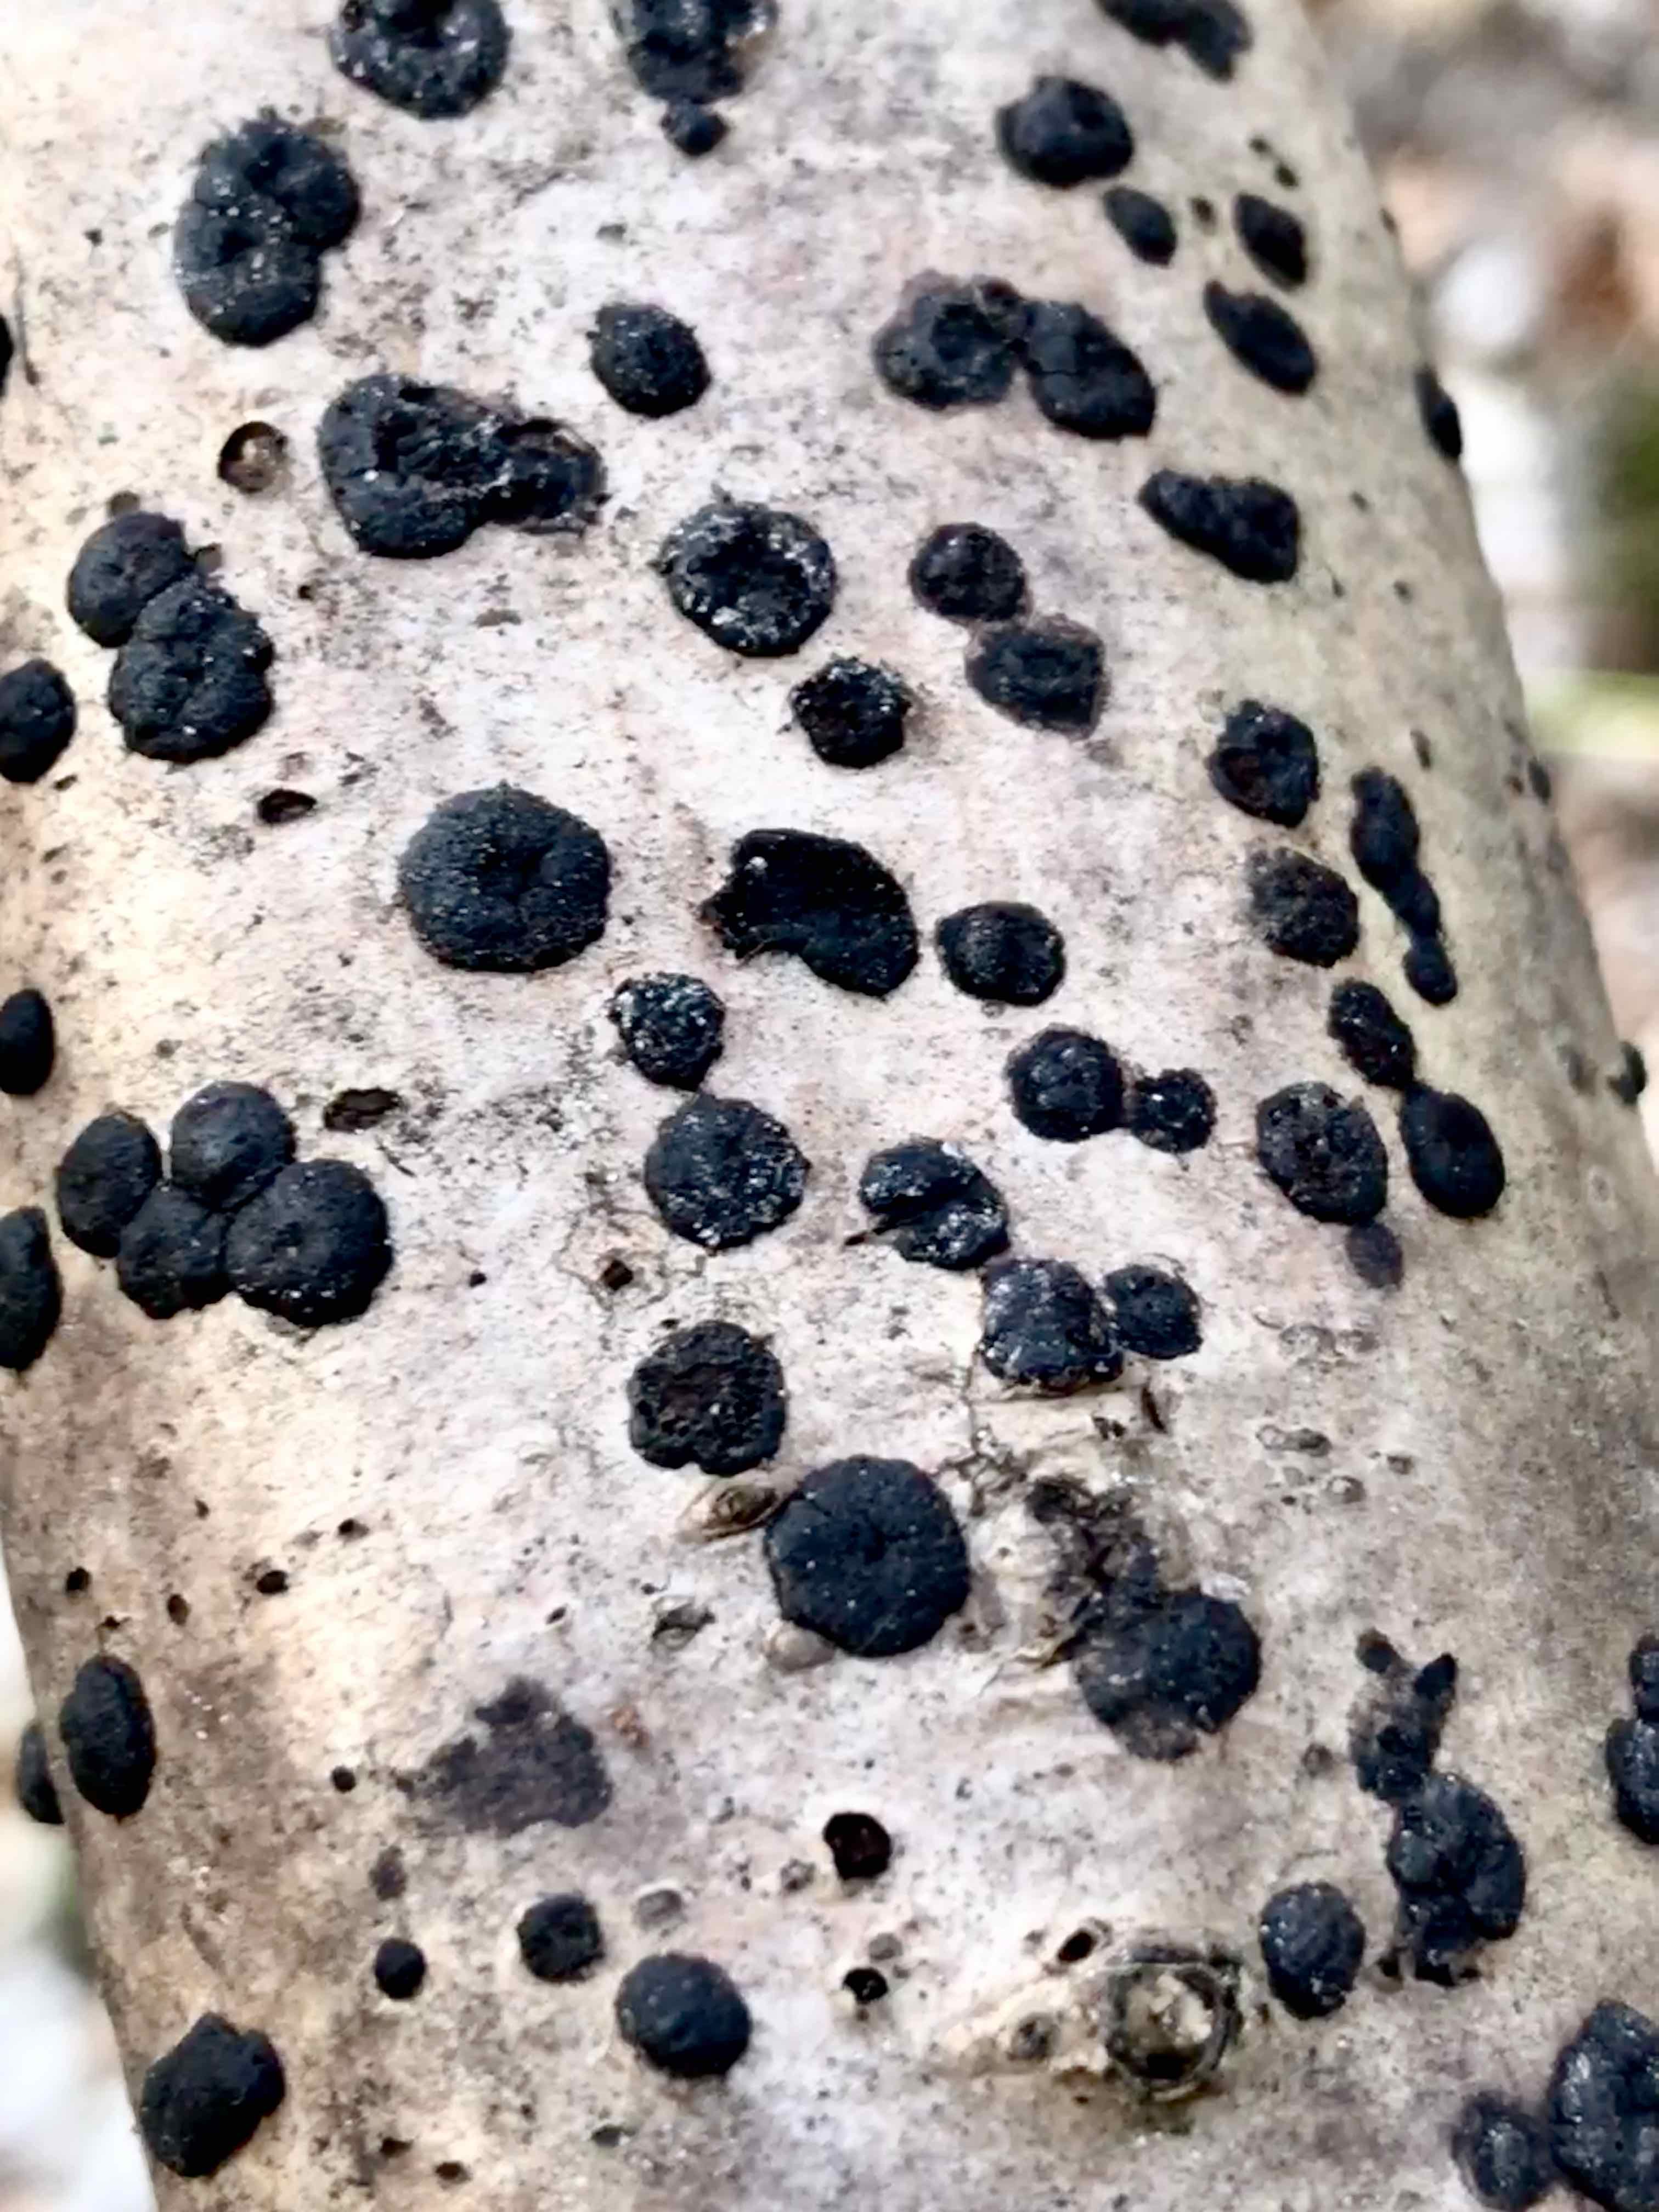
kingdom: Fungi
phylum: Ascomycota
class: Sordariomycetes
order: Xylariales
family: Hypoxylaceae
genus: Hypoxylon
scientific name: Hypoxylon fuscum
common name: kegleformet kulbær
